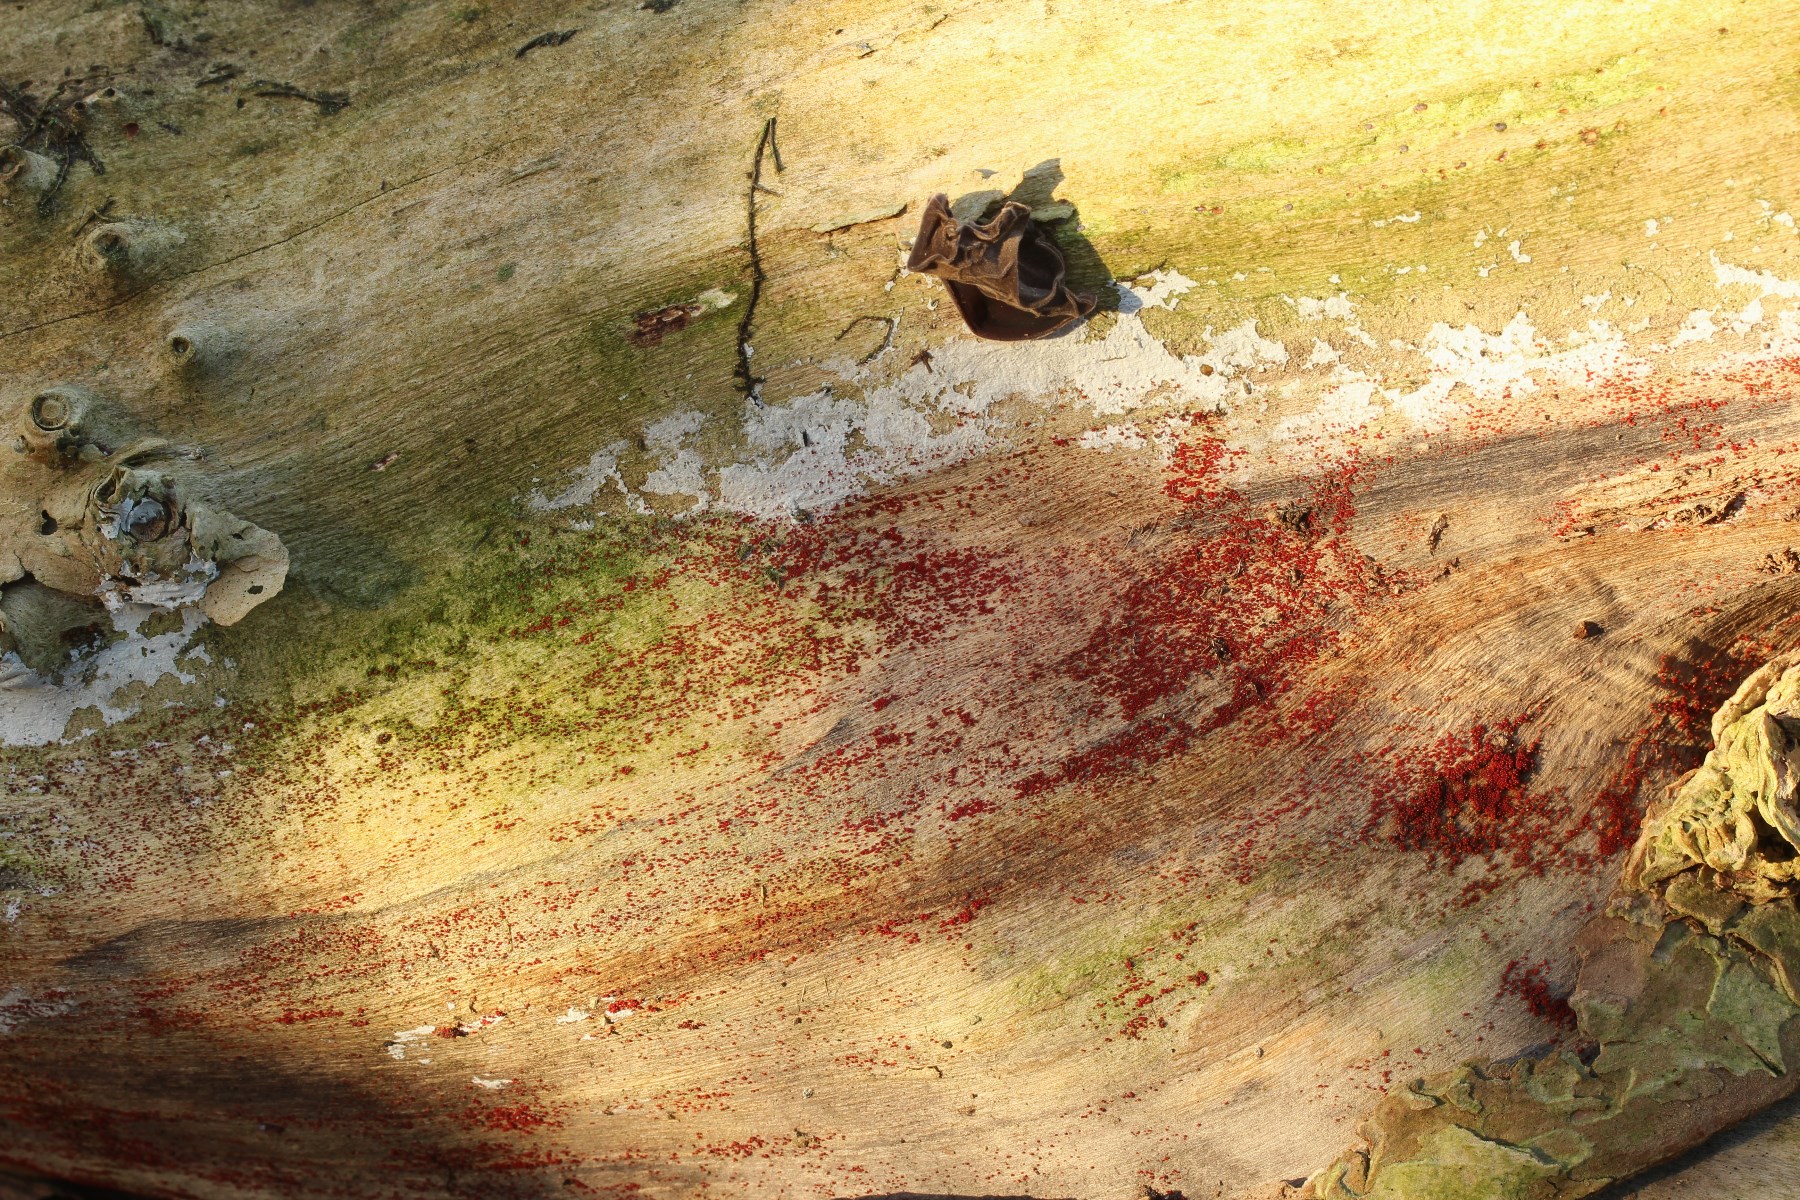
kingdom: Fungi
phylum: Ascomycota
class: Sordariomycetes
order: Hypocreales
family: Nectriaceae
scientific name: Nectriaceae
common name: cinnobersvampfamilien
